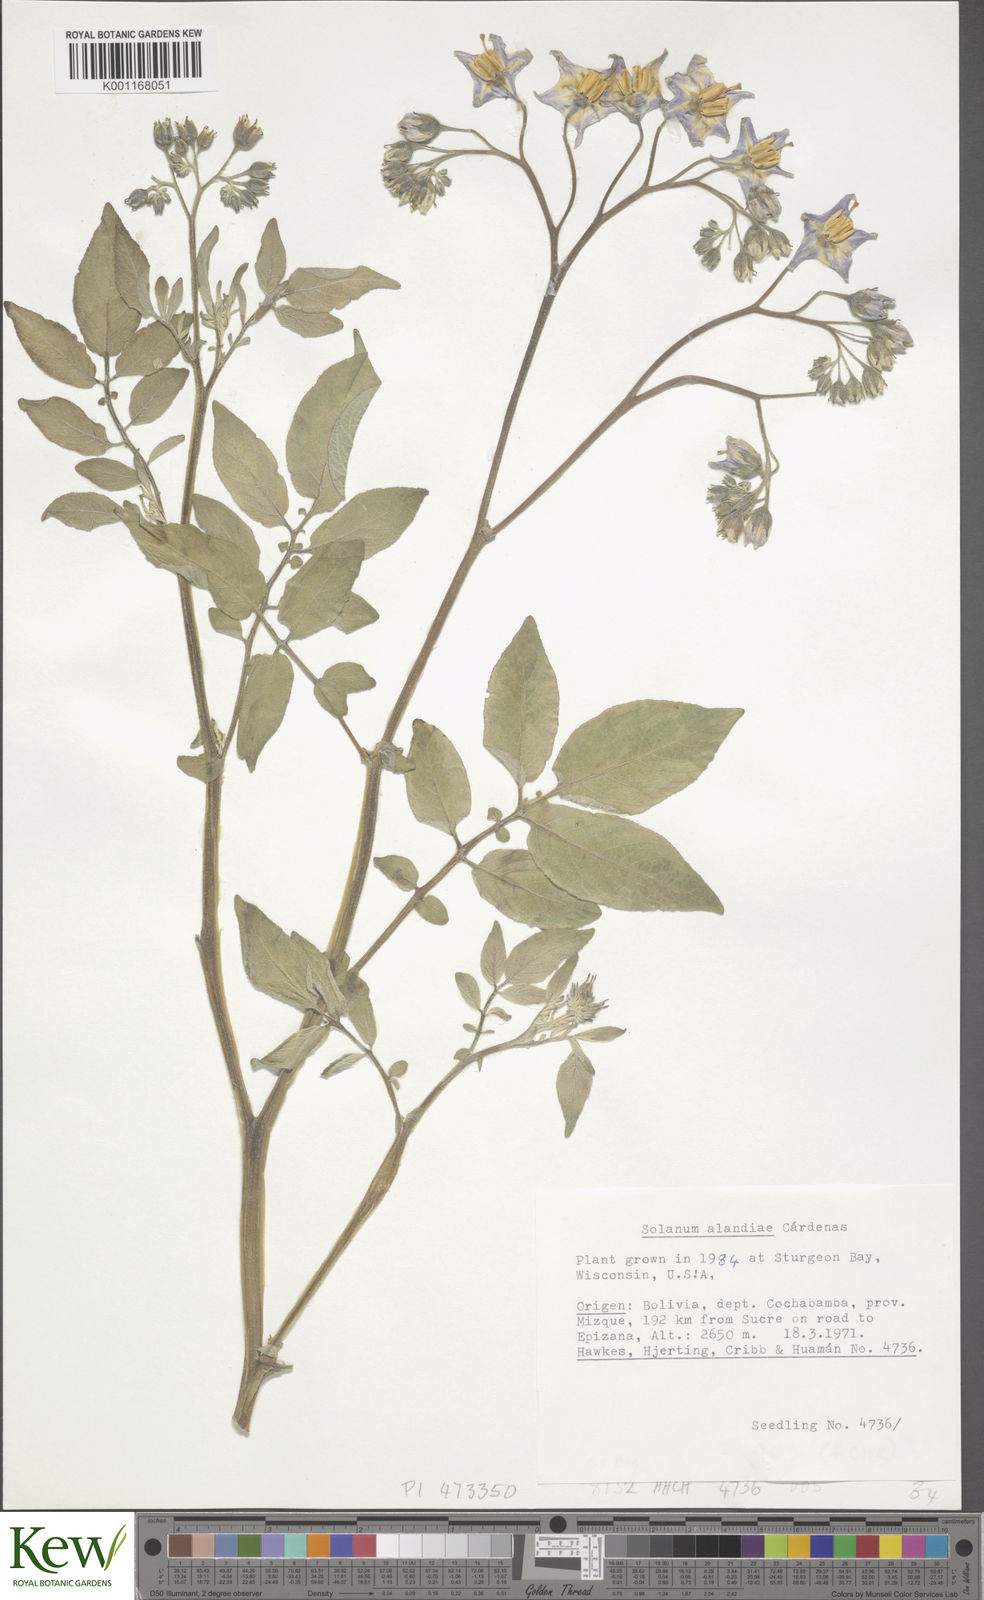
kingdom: Plantae
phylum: Tracheophyta
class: Magnoliopsida
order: Solanales
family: Solanaceae
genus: Solanum
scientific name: Solanum
